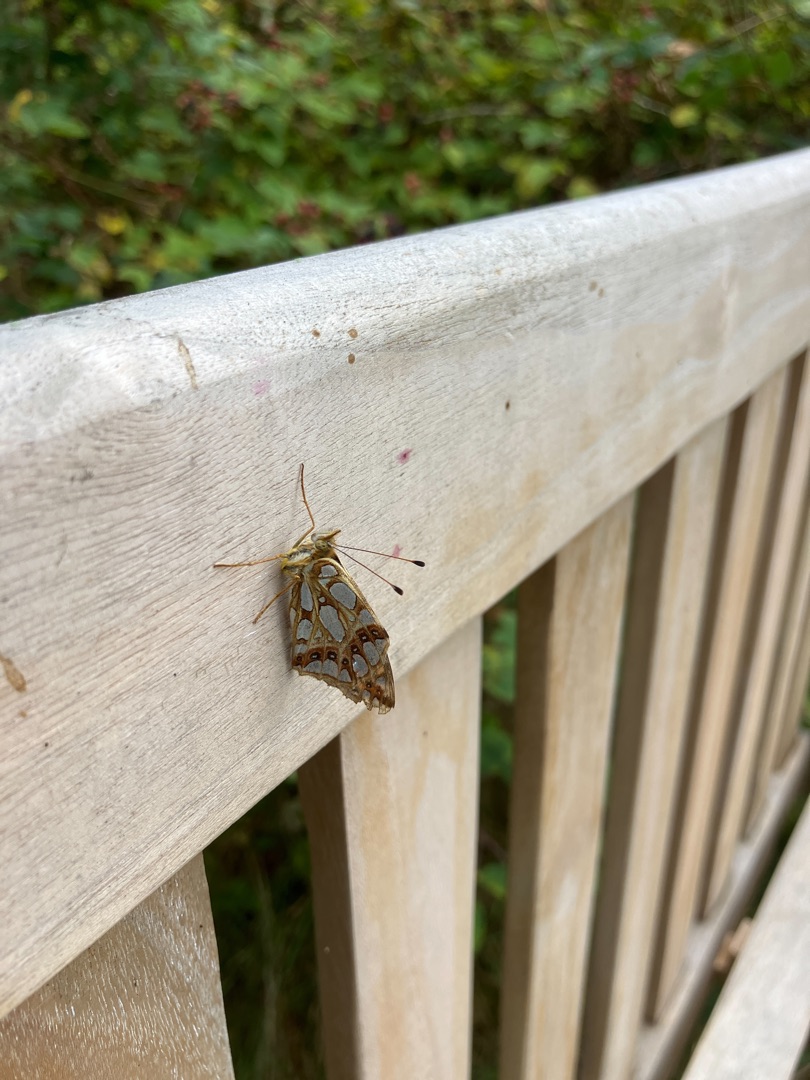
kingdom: Animalia
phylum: Arthropoda
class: Insecta
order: Lepidoptera
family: Nymphalidae
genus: Issoria
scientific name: Issoria lathonia
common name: Storplettet perlemorsommerfugl
